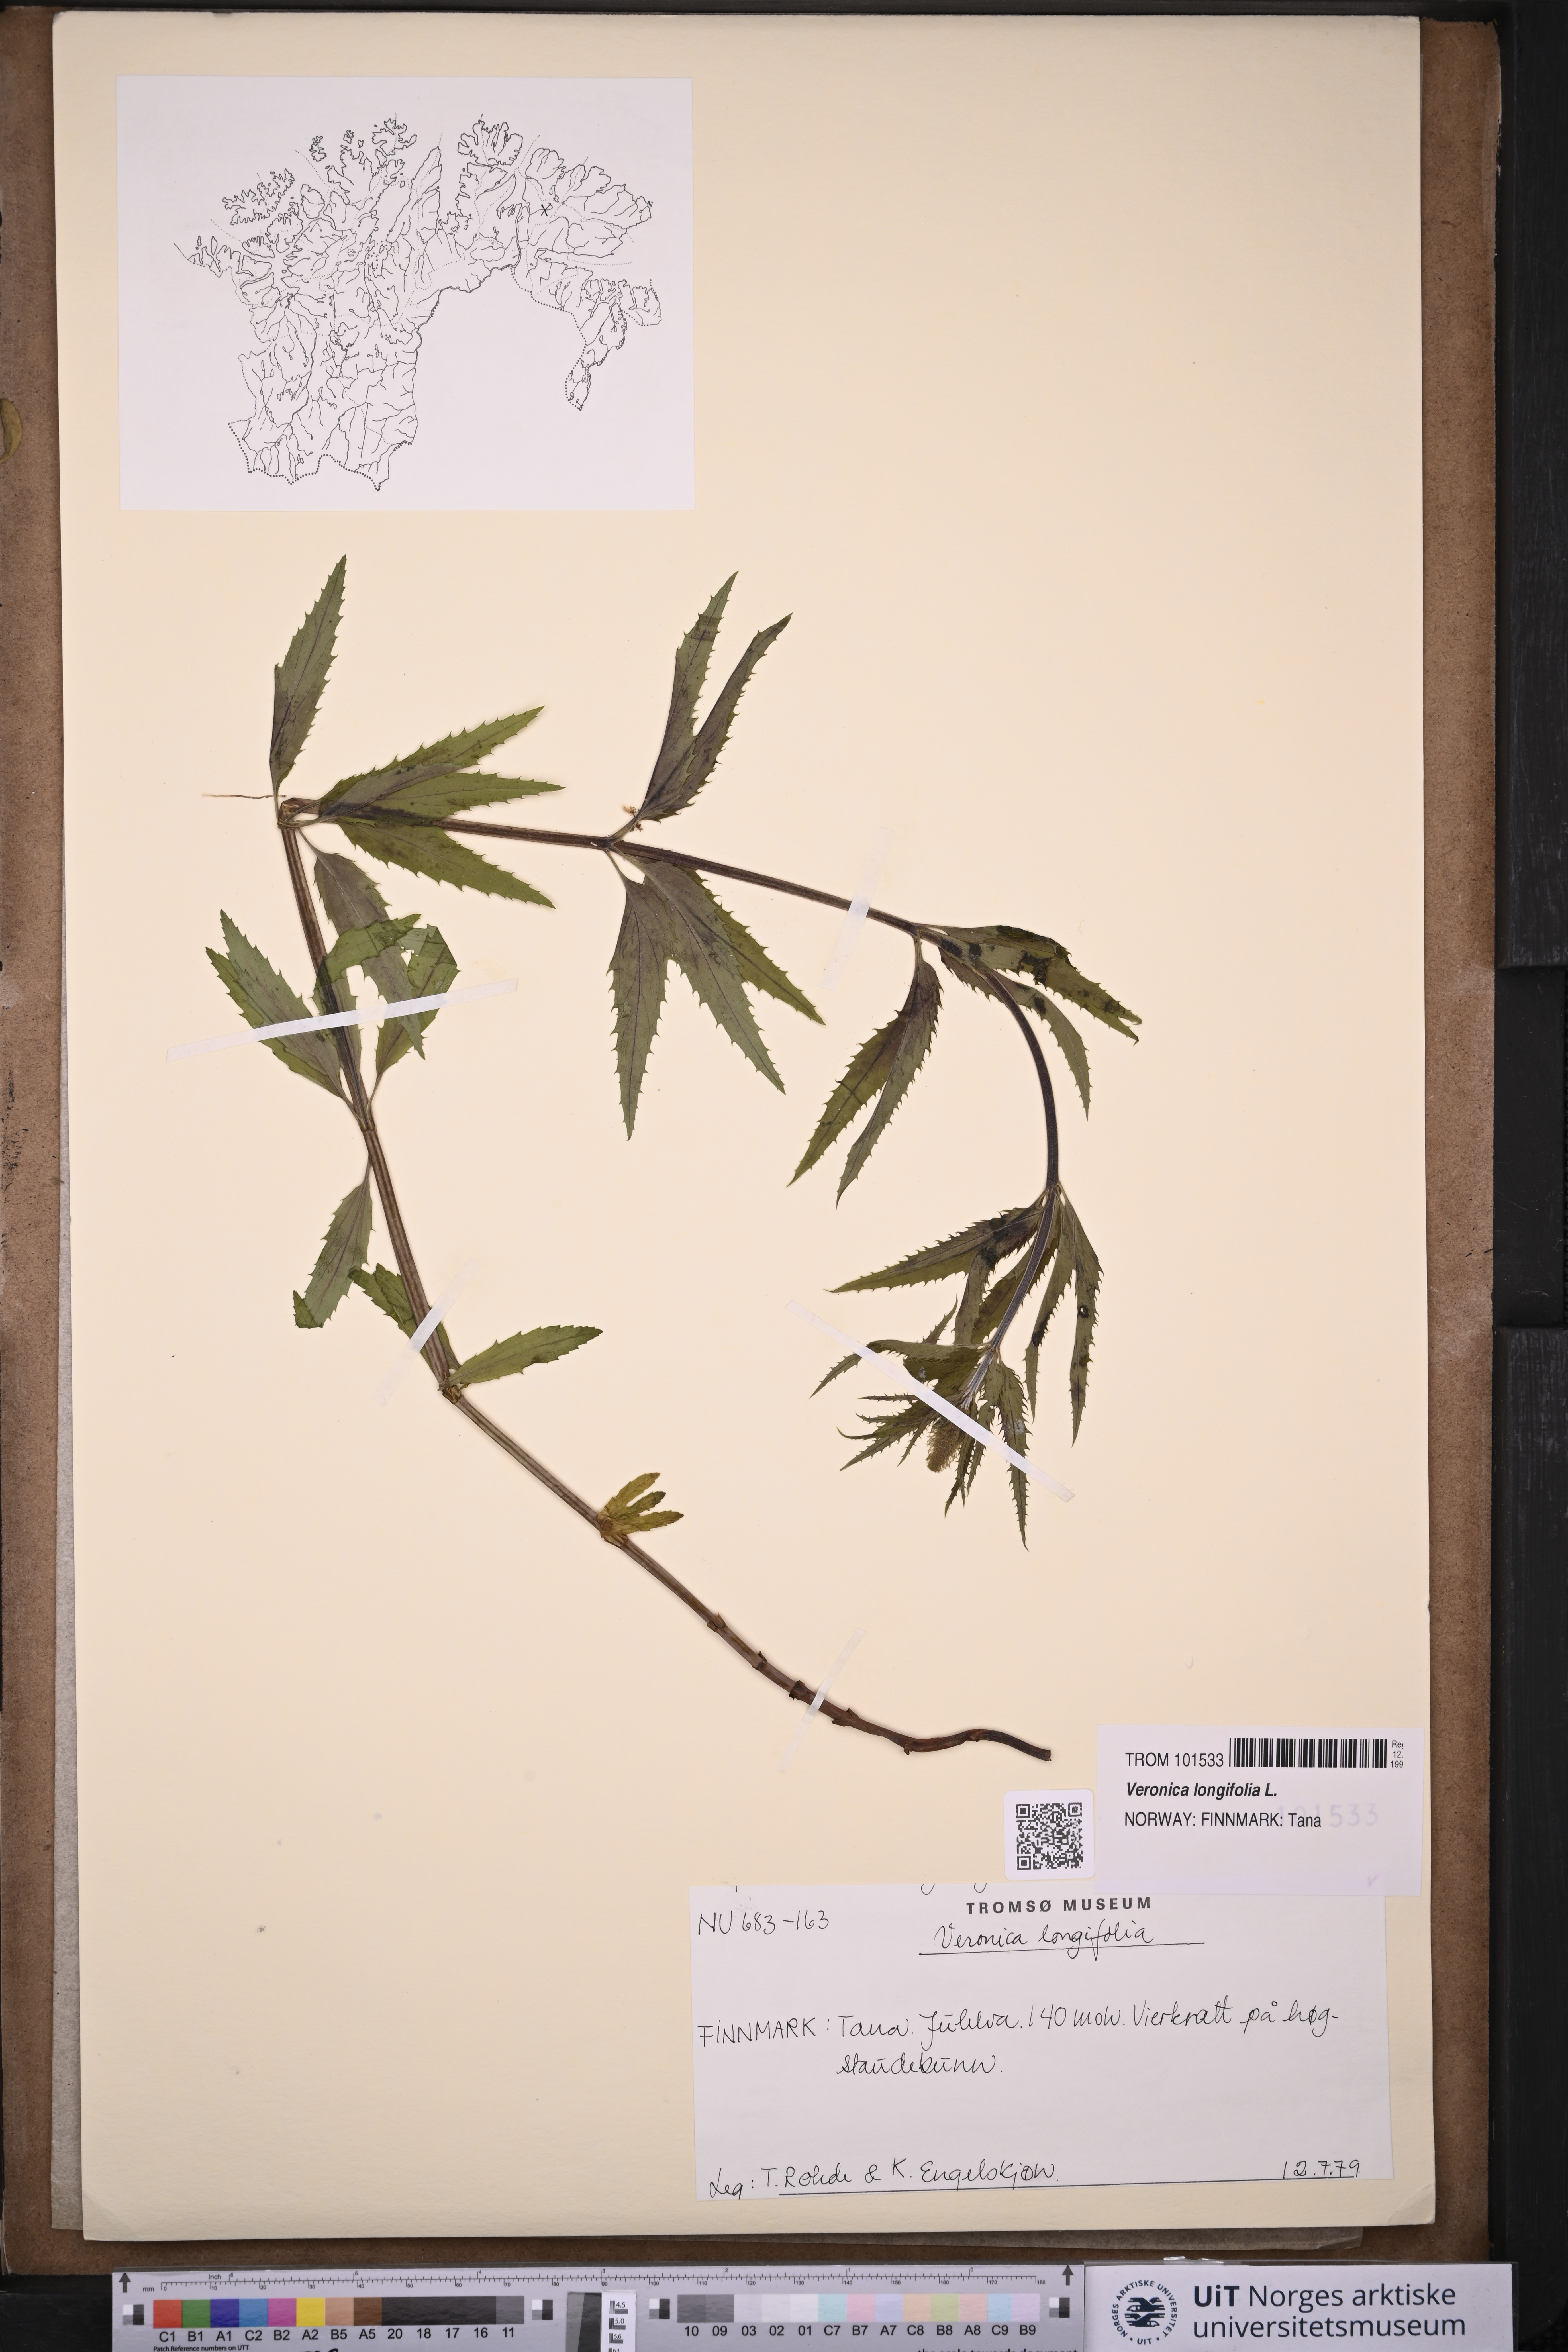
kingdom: Plantae
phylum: Tracheophyta
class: Magnoliopsida
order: Lamiales
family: Plantaginaceae
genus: Veronica
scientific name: Veronica longifolia
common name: Garden speedwell
